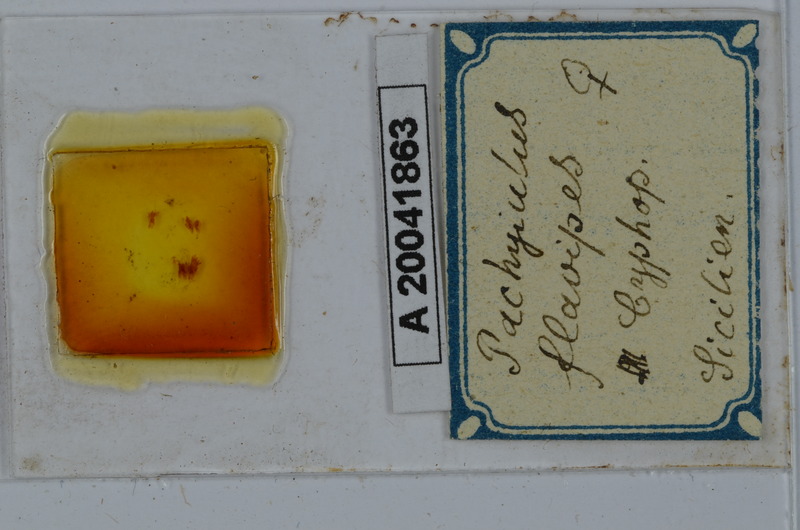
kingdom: Animalia
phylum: Arthropoda
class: Diplopoda
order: Julida
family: Julidae
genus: Pachyiulus
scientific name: Pachyiulus flavipes
